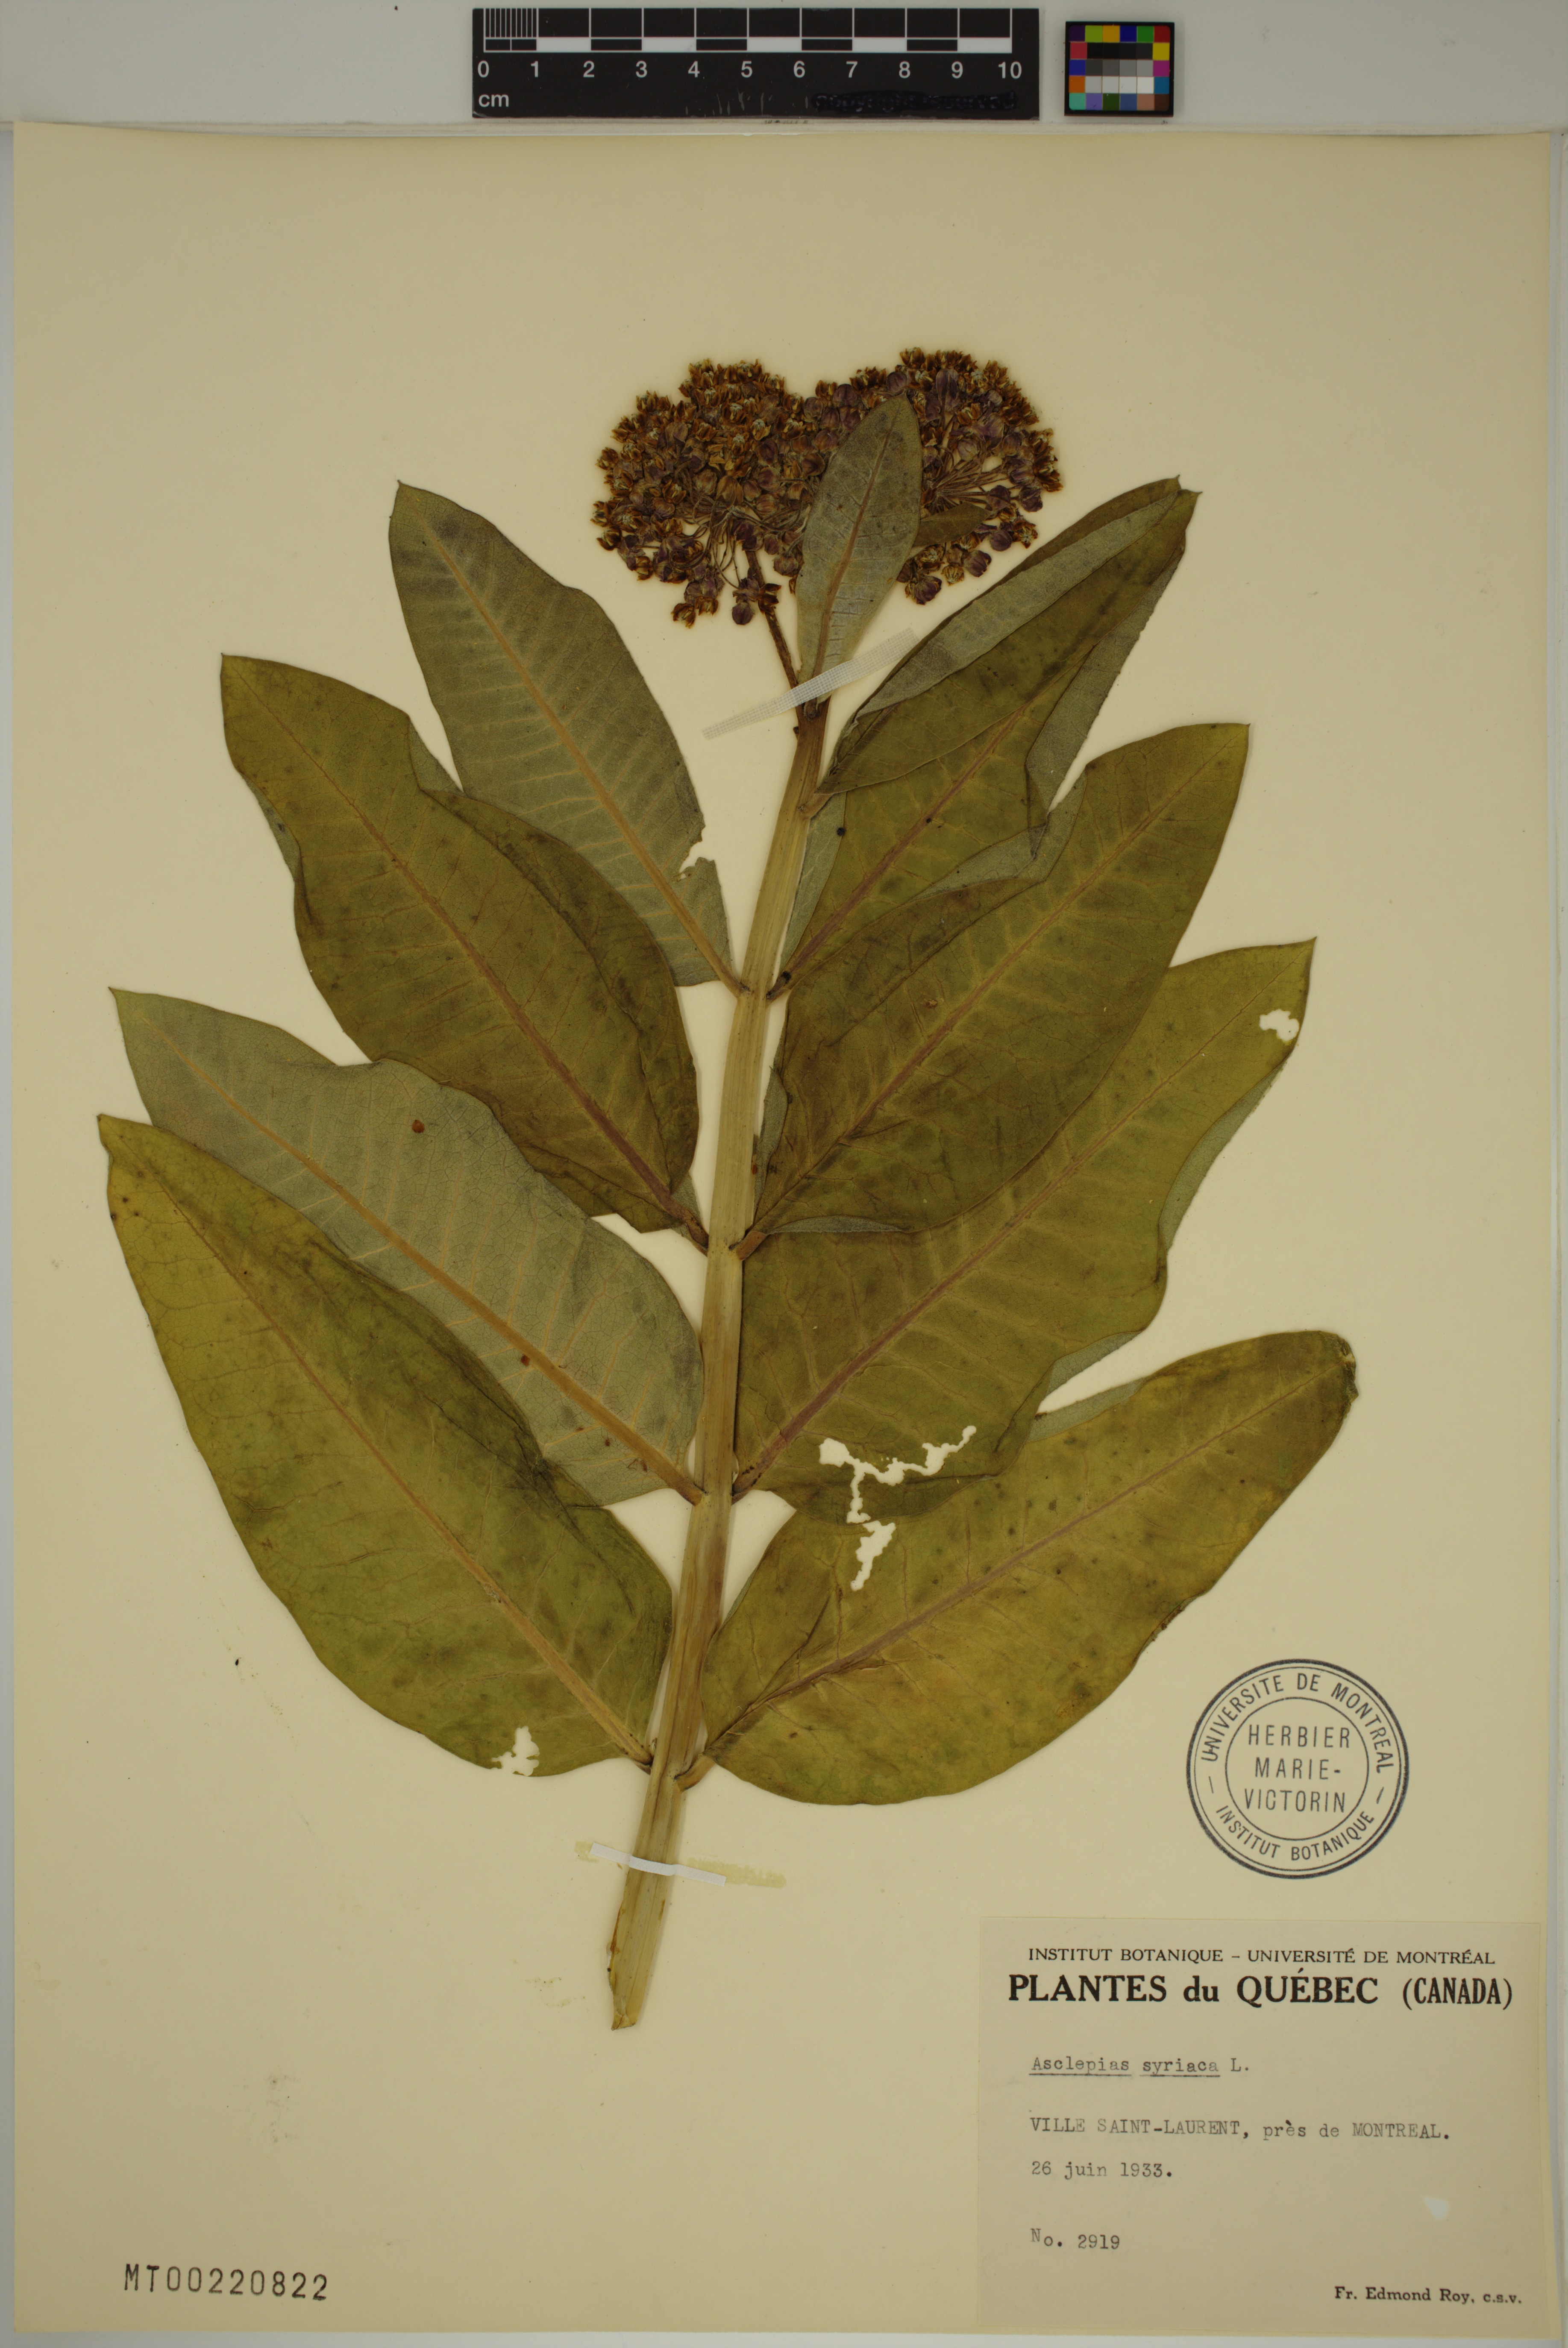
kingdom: Plantae
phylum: Tracheophyta
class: Magnoliopsida
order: Gentianales
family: Apocynaceae
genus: Asclepias
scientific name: Asclepias syriaca
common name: Common milkweed
